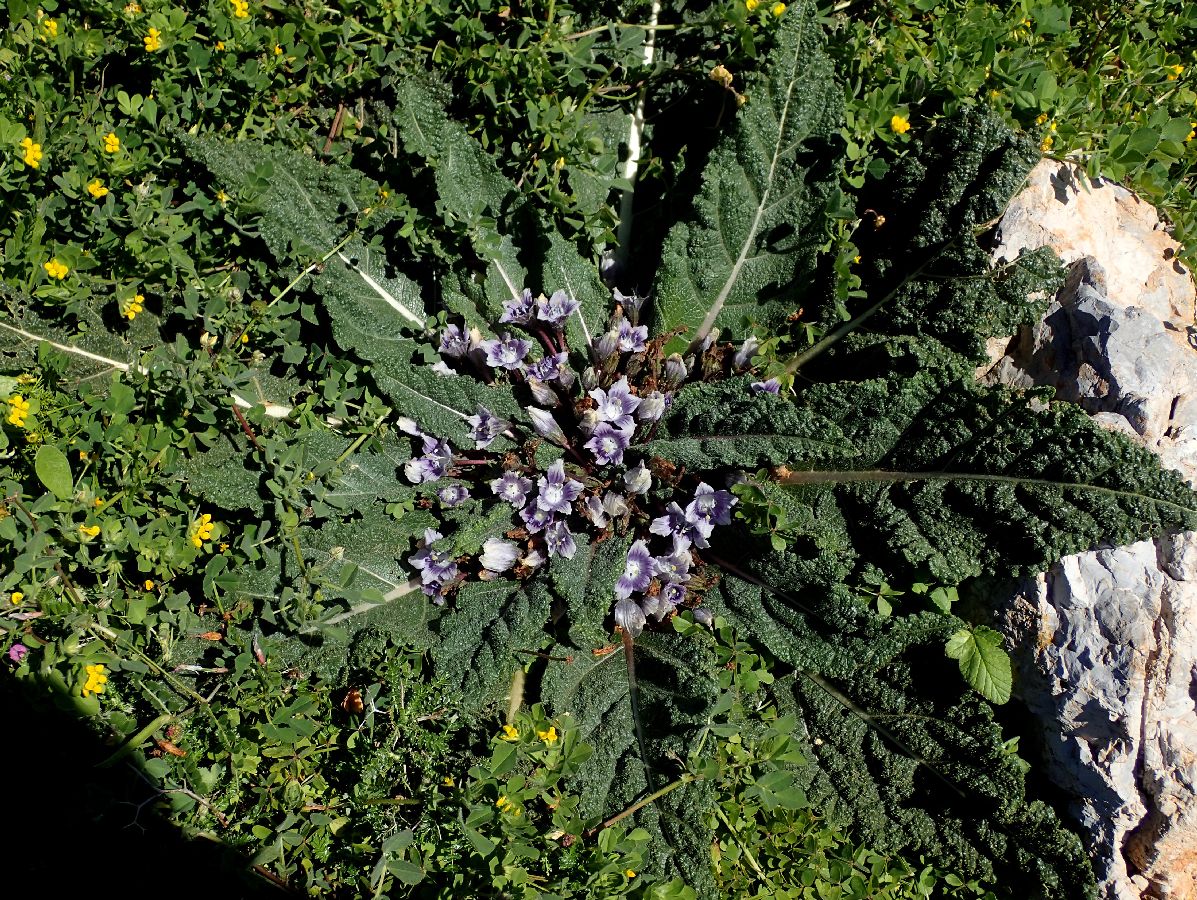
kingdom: Plantae
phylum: Tracheophyta
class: Magnoliopsida
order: Solanales
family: Solanaceae
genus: Mandragora
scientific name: Mandragora officinarum
